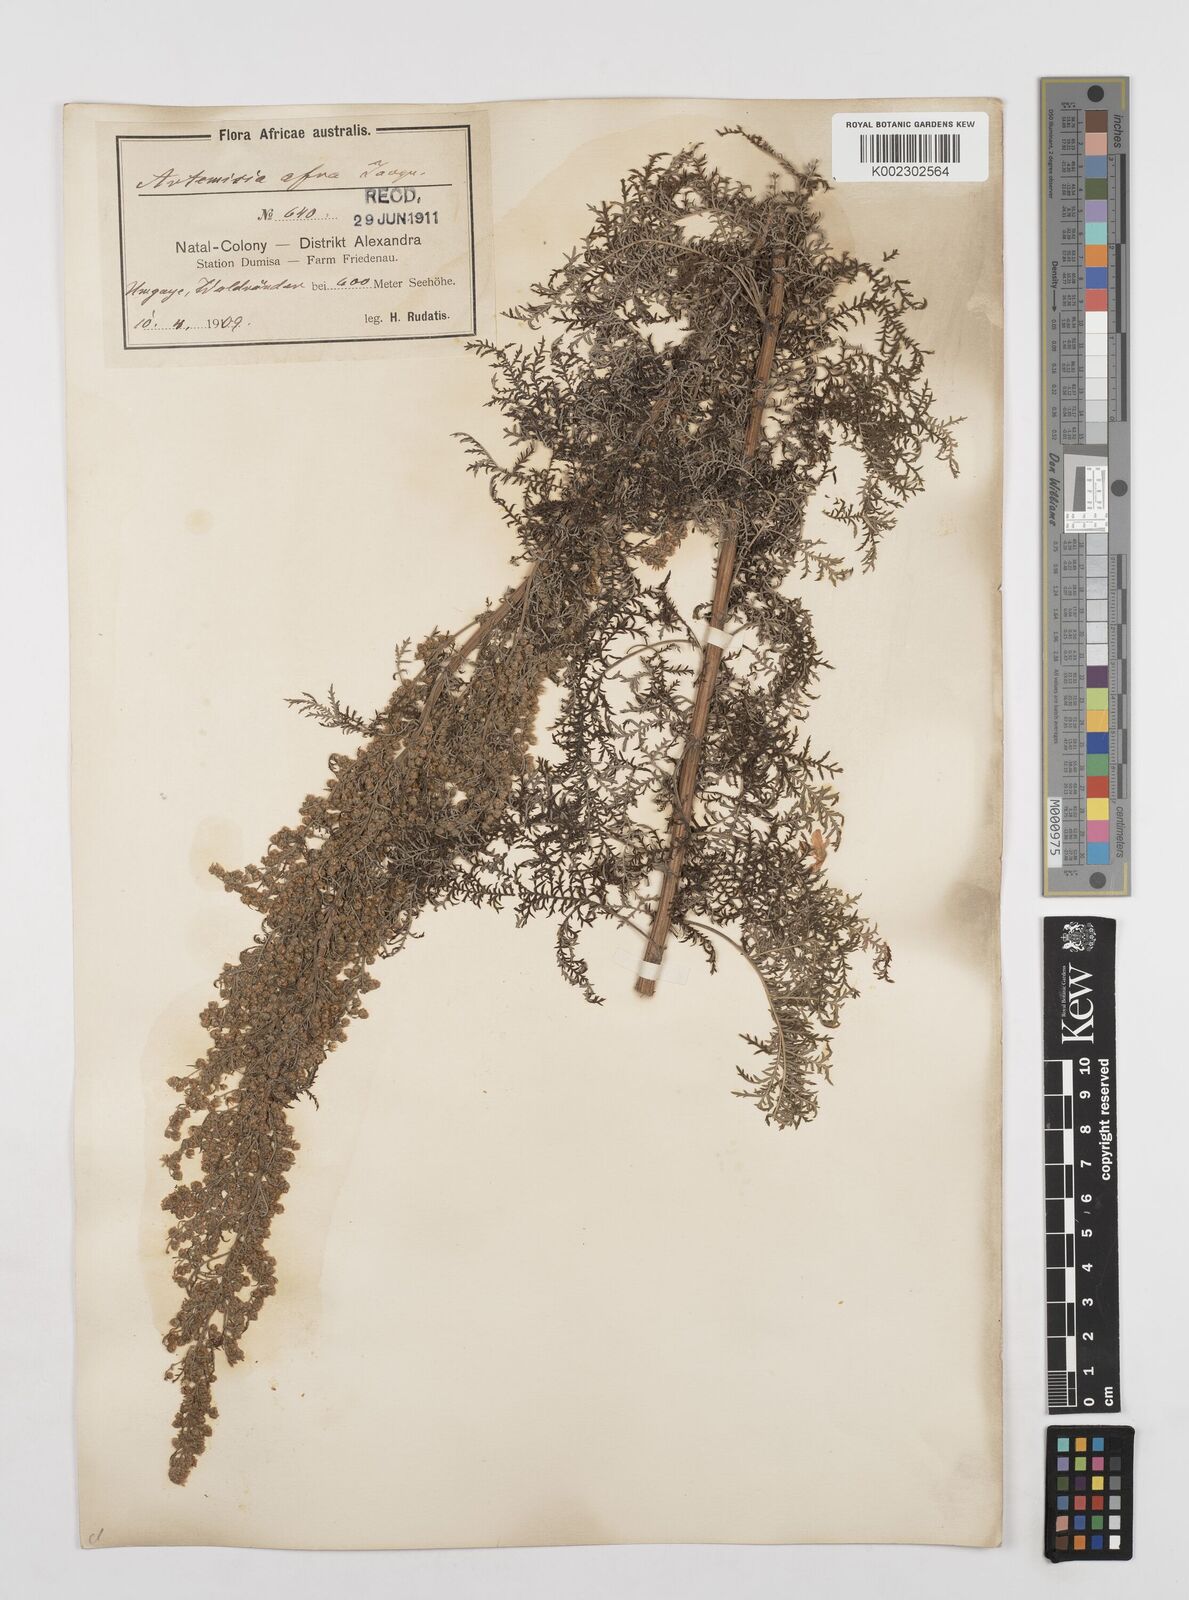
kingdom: Plantae
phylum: Tracheophyta
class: Magnoliopsida
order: Asterales
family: Asteraceae
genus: Artemisia
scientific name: Artemisia afra
